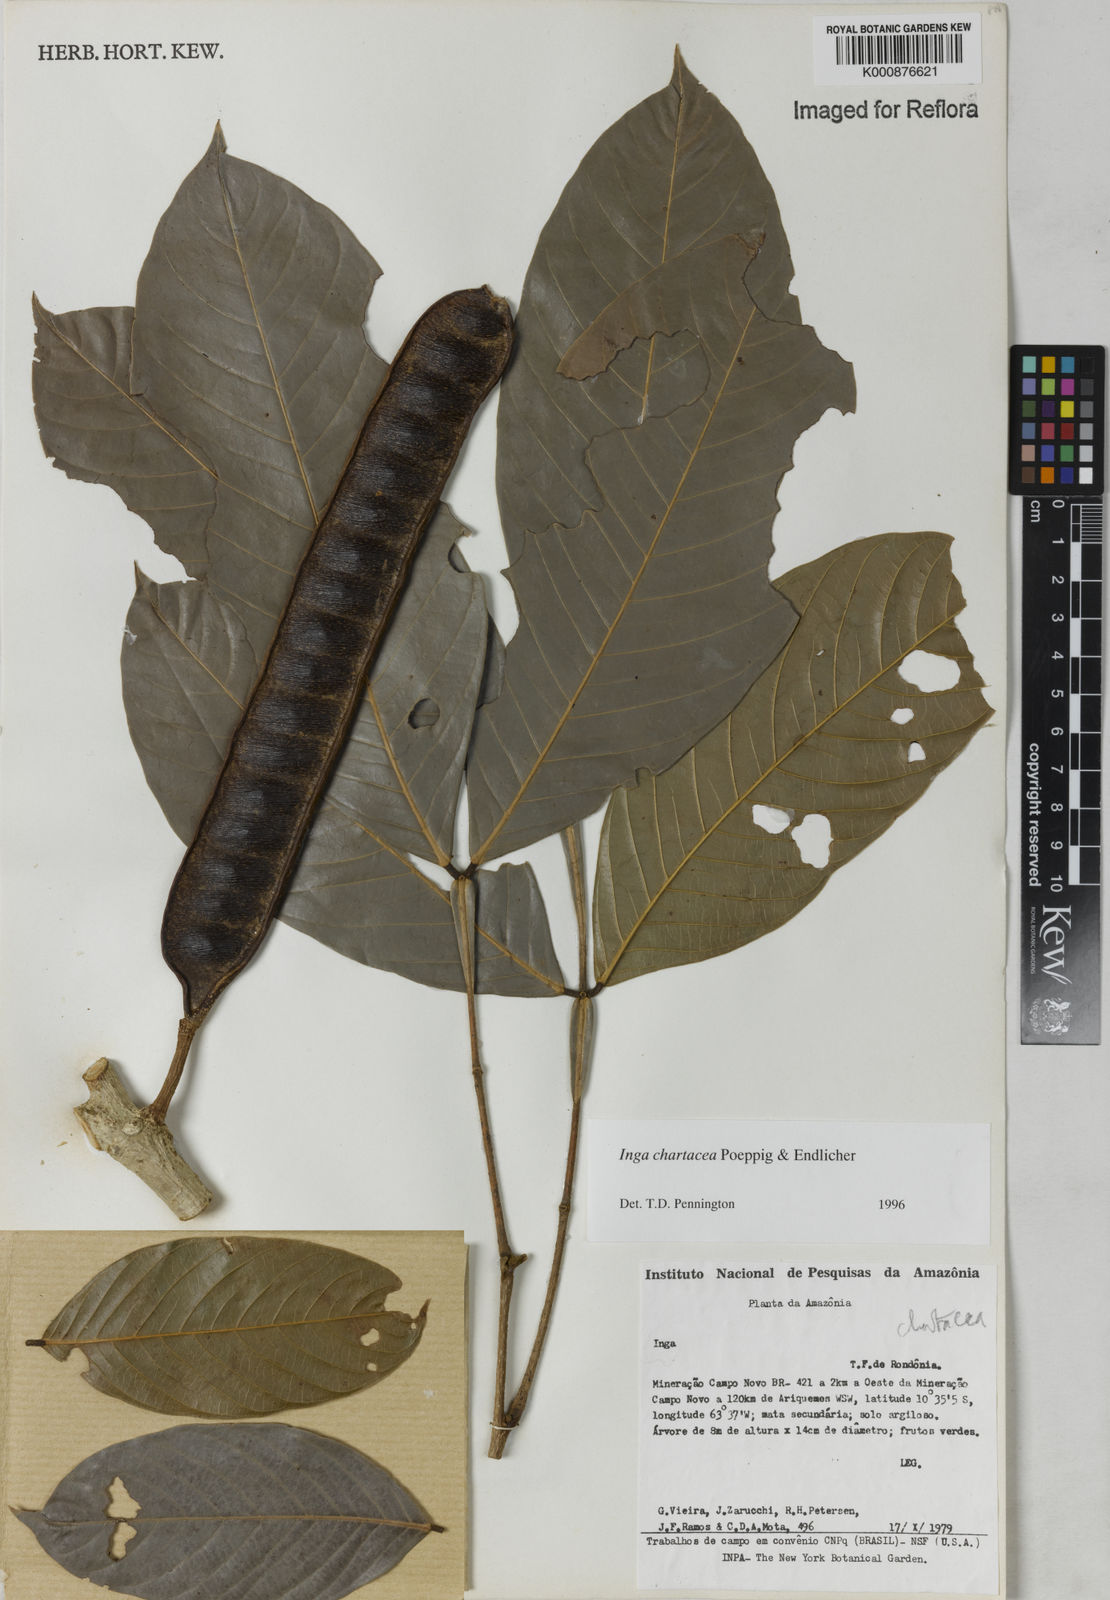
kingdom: Plantae
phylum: Tracheophyta
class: Magnoliopsida
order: Fabales
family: Fabaceae
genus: Inga
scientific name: Inga chartacea
